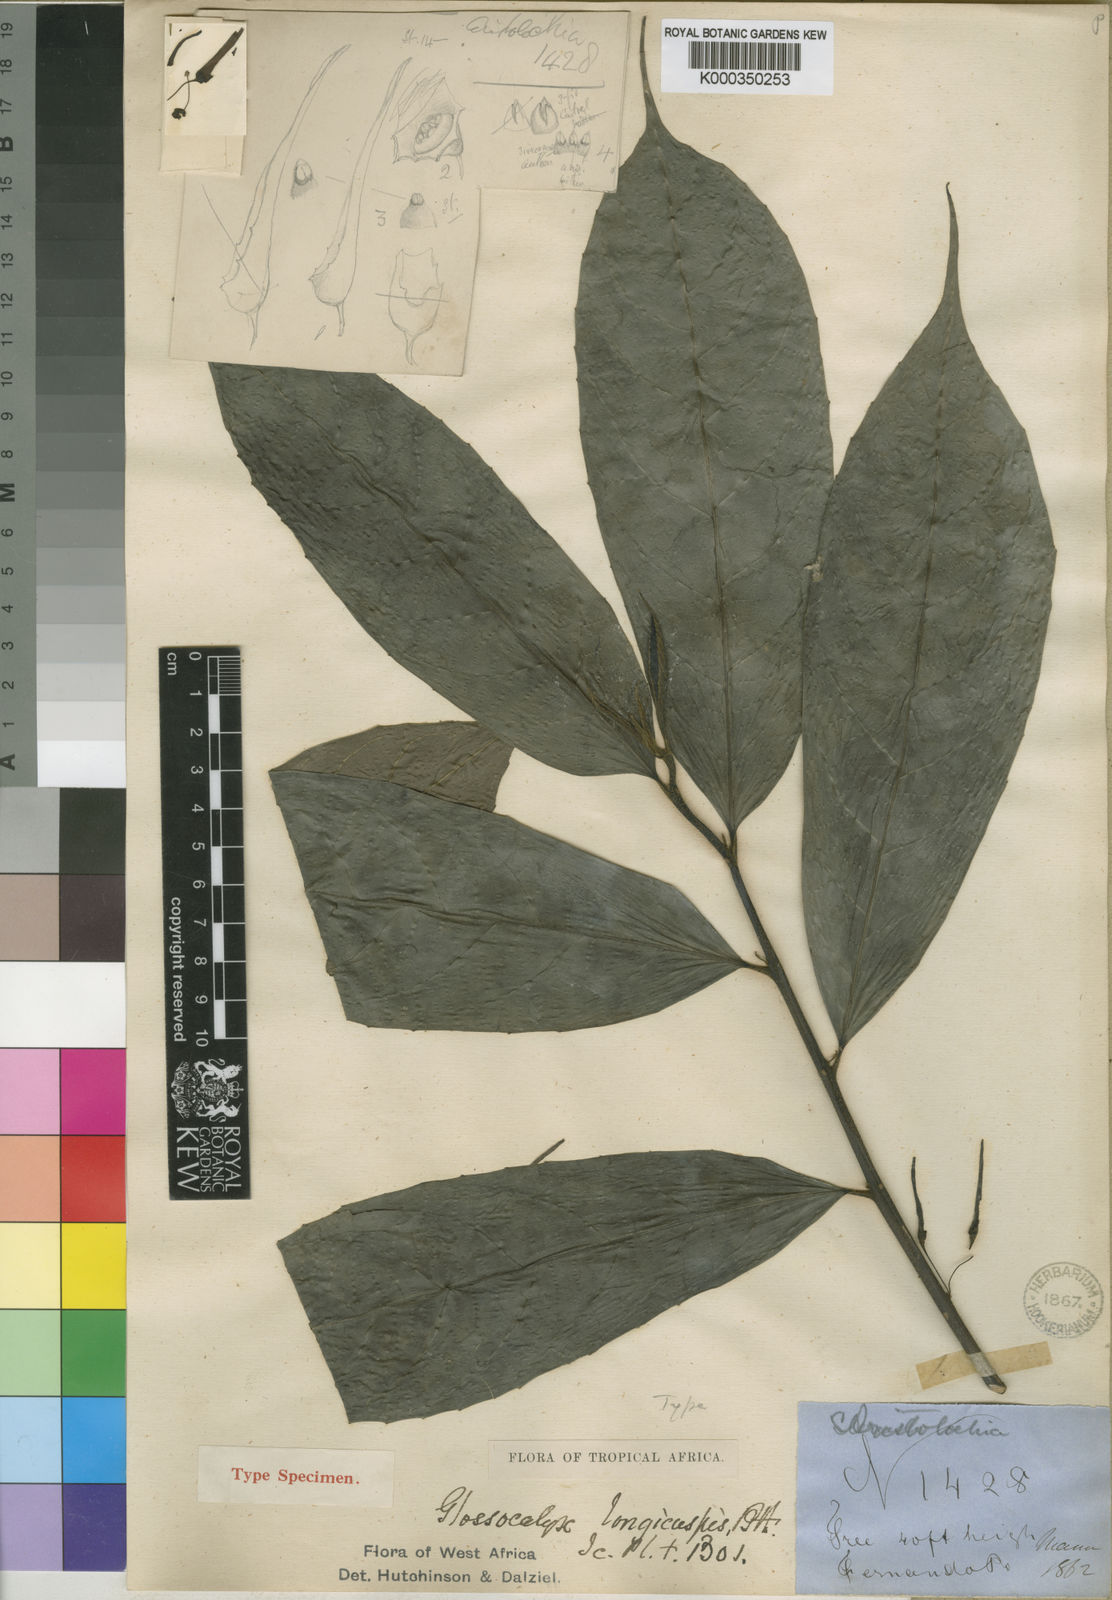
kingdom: Plantae
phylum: Tracheophyta
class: Magnoliopsida
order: Laurales
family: Siparunaceae
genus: Glossocalyx
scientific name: Glossocalyx longicuspis
